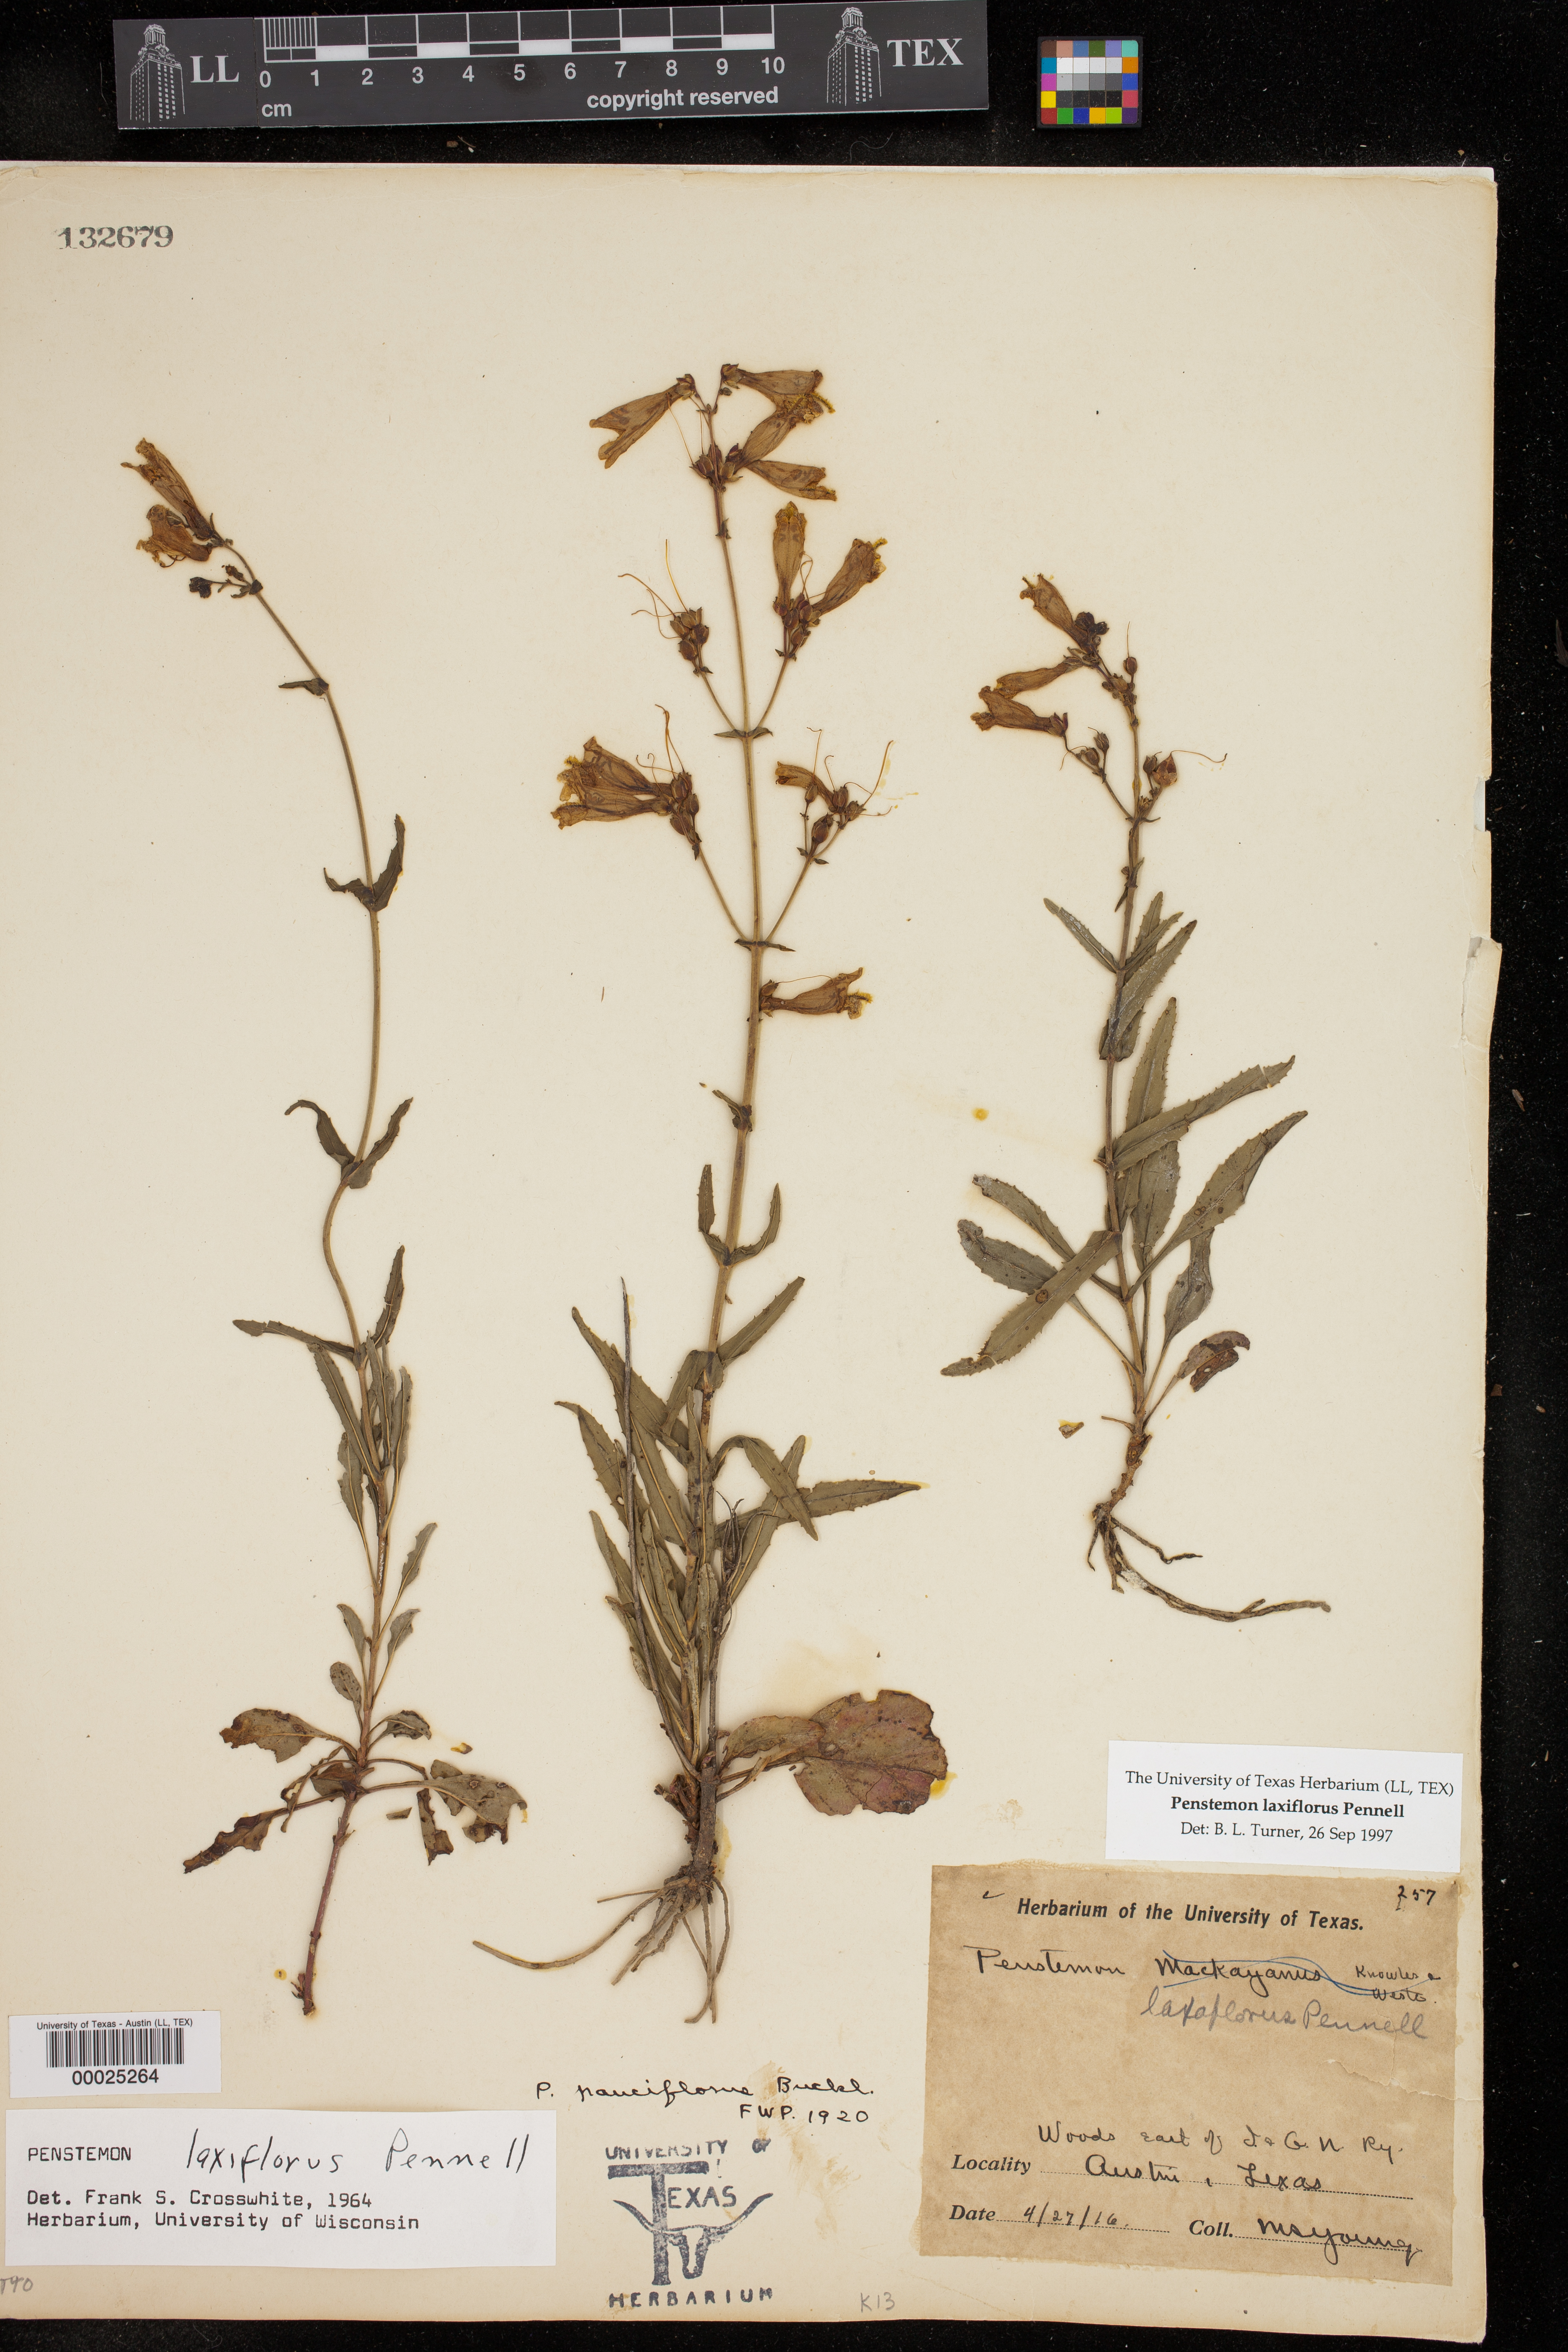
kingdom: Plantae
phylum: Tracheophyta
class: Magnoliopsida
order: Lamiales
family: Plantaginaceae
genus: Penstemon
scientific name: Penstemon laxiflorus
